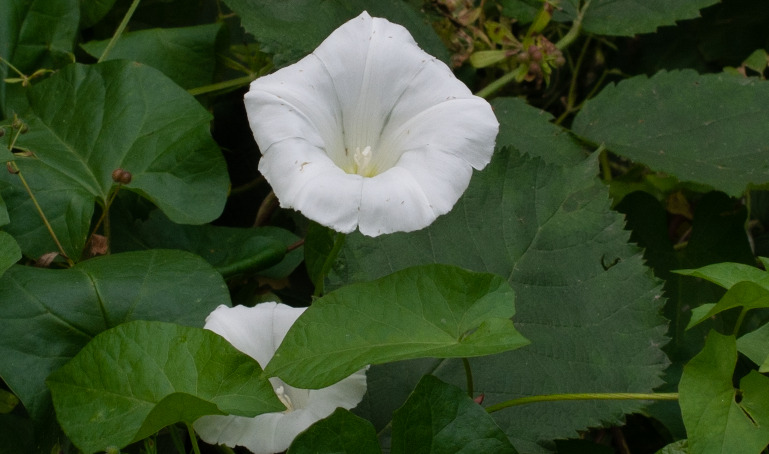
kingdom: Plantae
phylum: Tracheophyta
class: Magnoliopsida
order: Solanales
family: Convolvulaceae
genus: Calystegia
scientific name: Calystegia sepium
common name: Gærde-snerle
